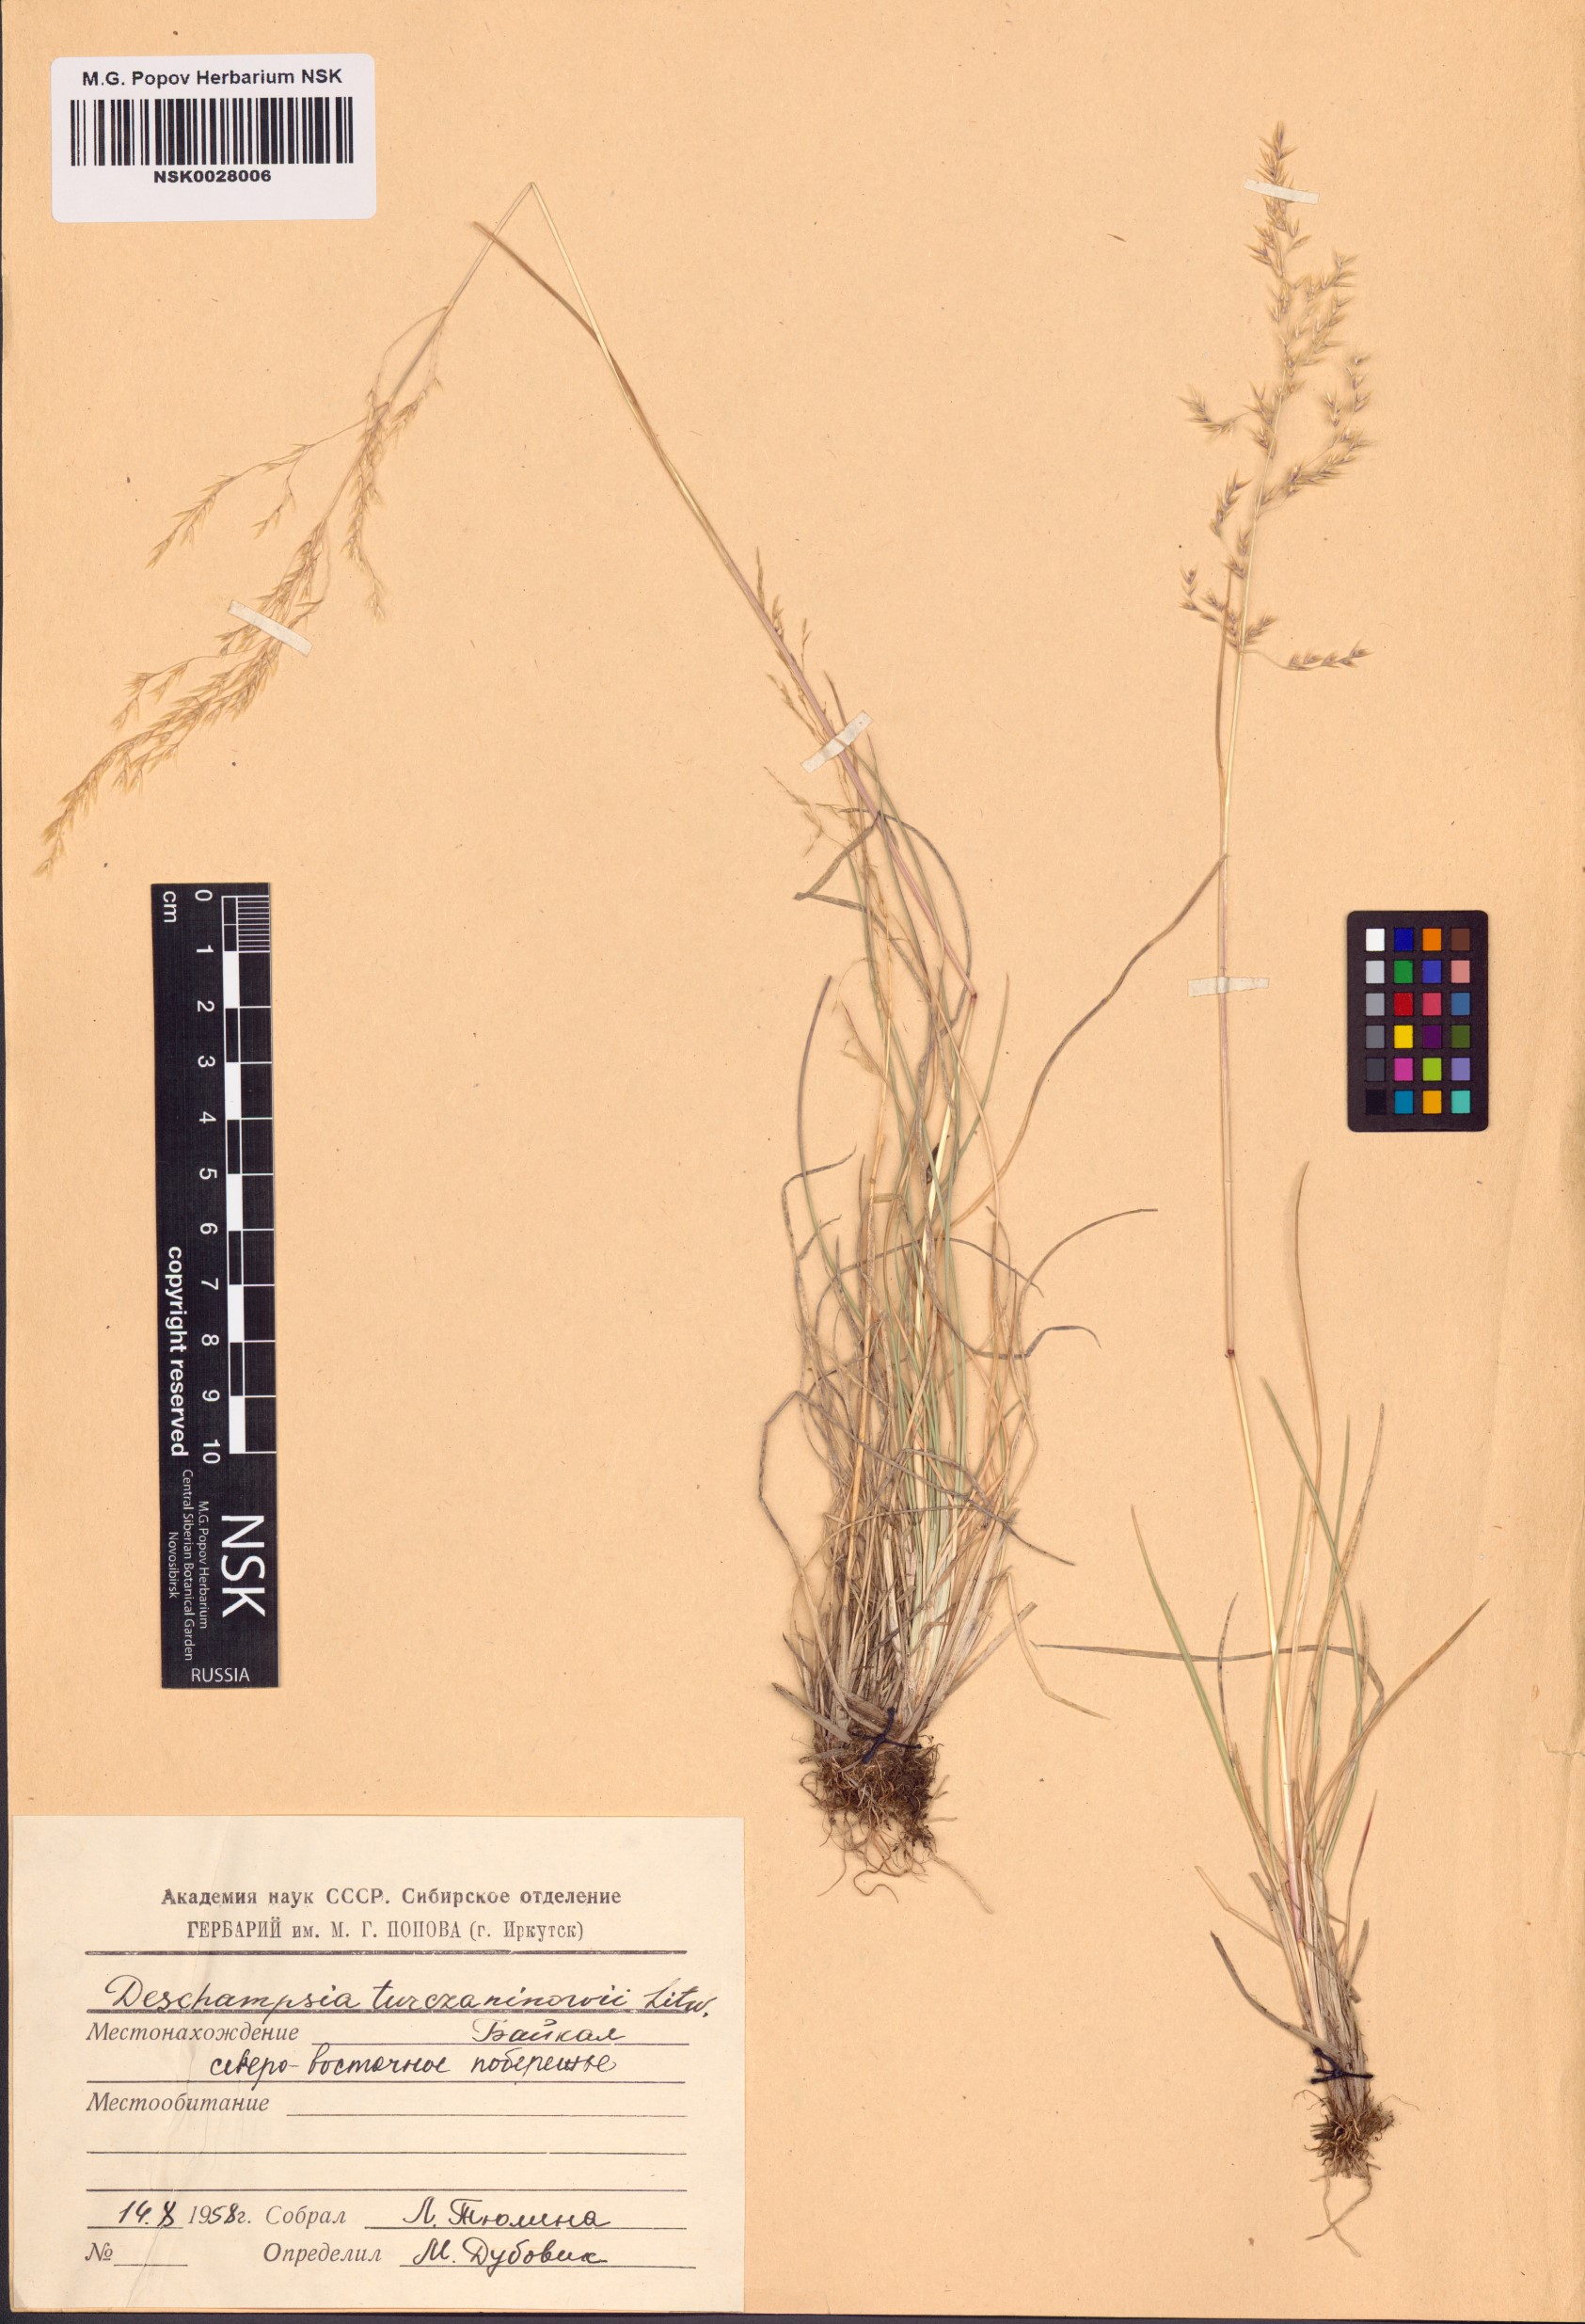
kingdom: Plantae
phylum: Tracheophyta
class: Liliopsida
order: Poales
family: Poaceae
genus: Deschampsia
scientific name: Deschampsia cespitosa
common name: Tufted hair-grass
